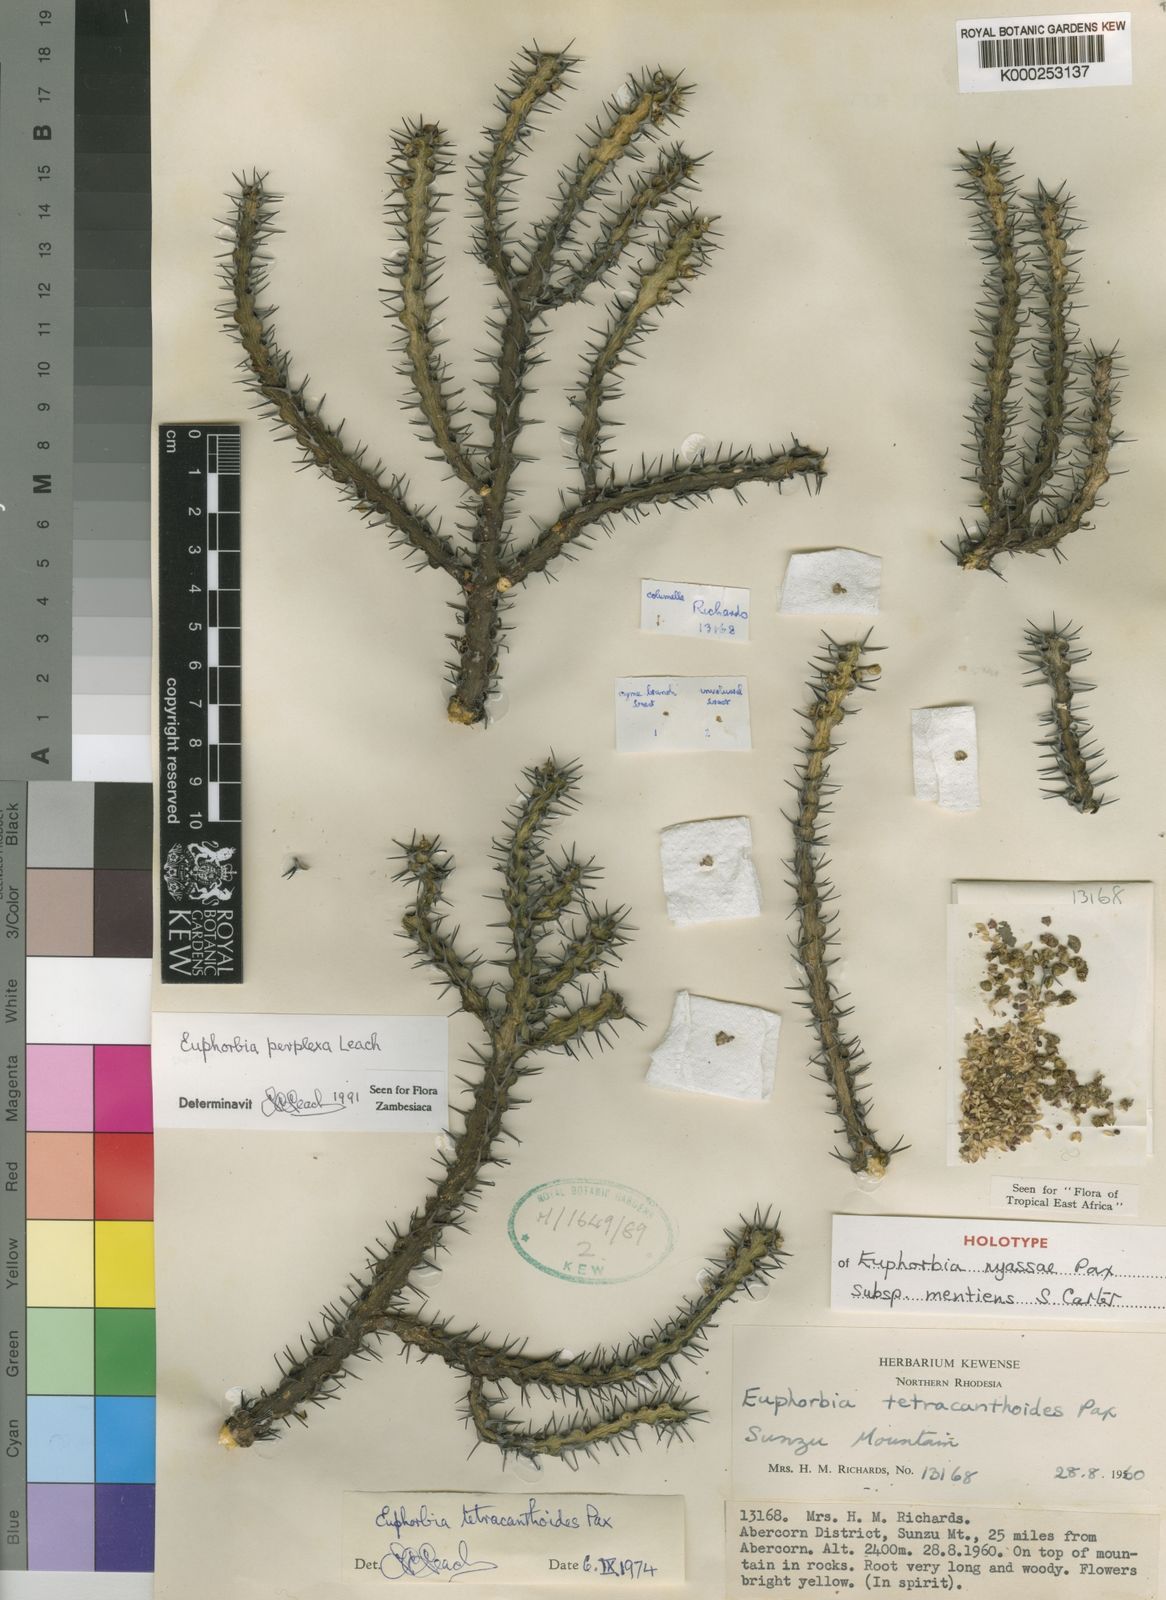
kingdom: Plantae
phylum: Tracheophyta
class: Magnoliopsida
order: Malpighiales
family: Euphorbiaceae
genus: Euphorbia
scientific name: Euphorbia perplexa
